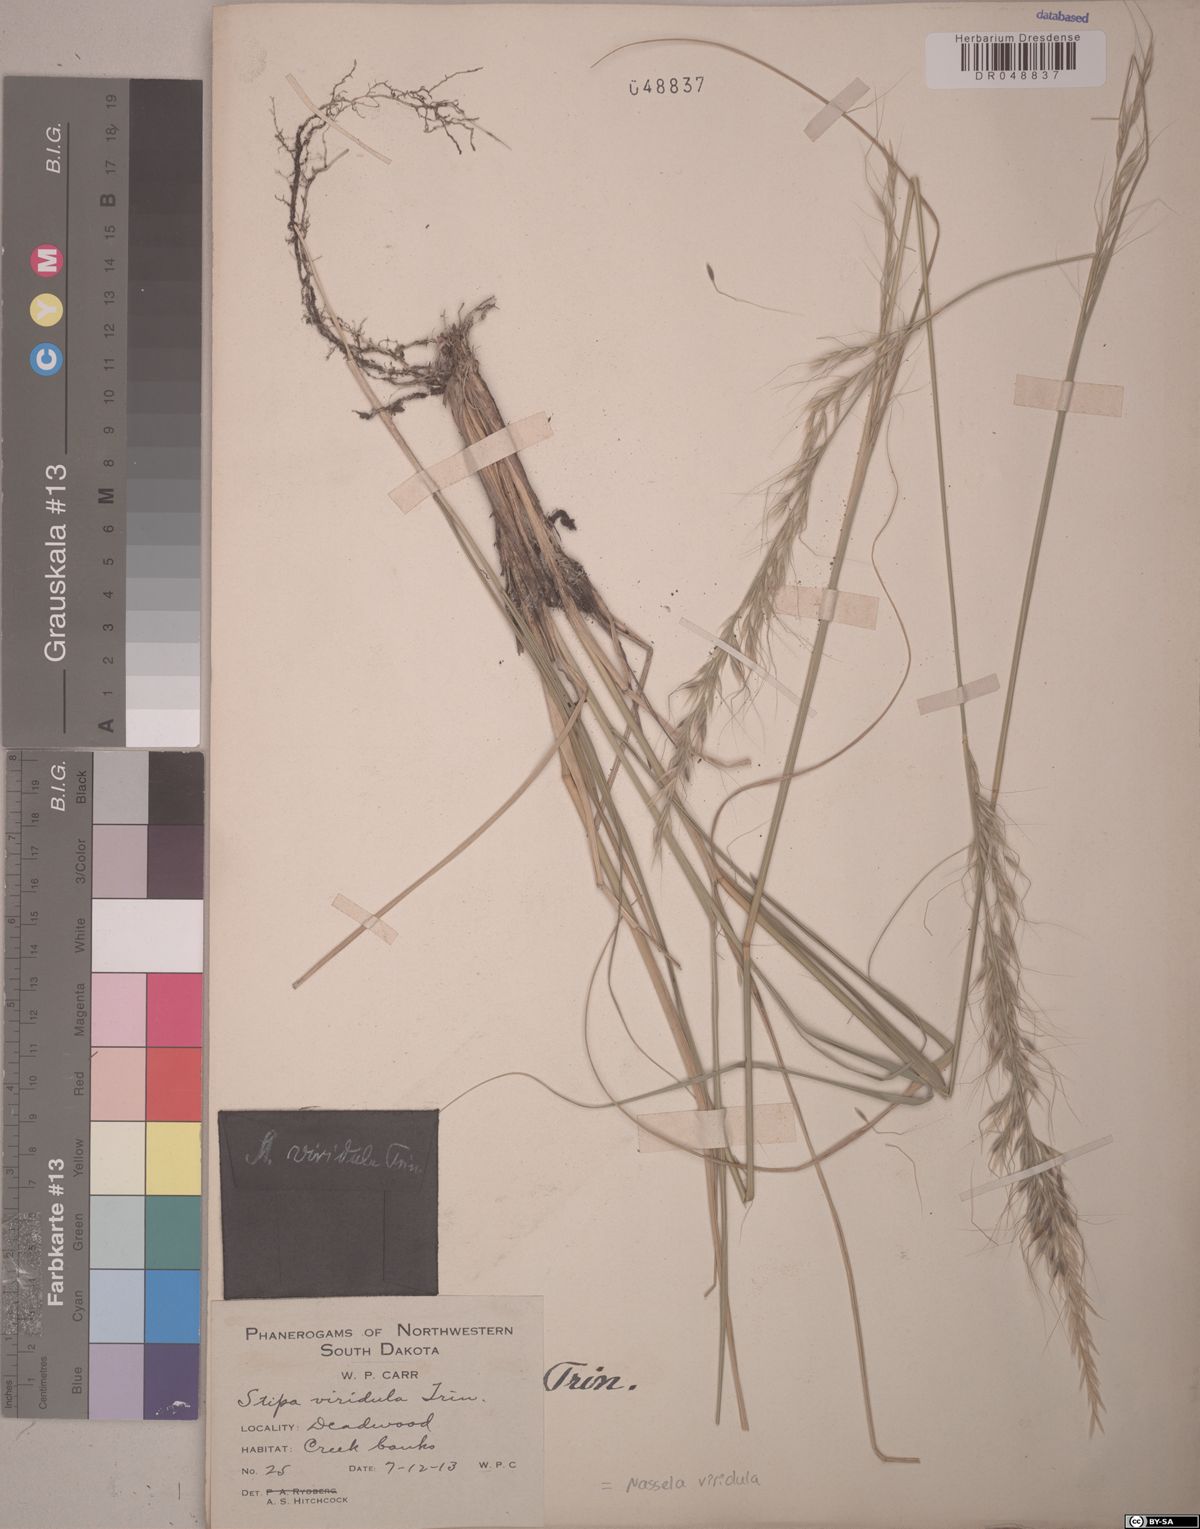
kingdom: Plantae
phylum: Tracheophyta
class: Liliopsida
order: Poales
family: Poaceae
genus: Nassella
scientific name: Nassella viridula
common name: Green needlegrass
